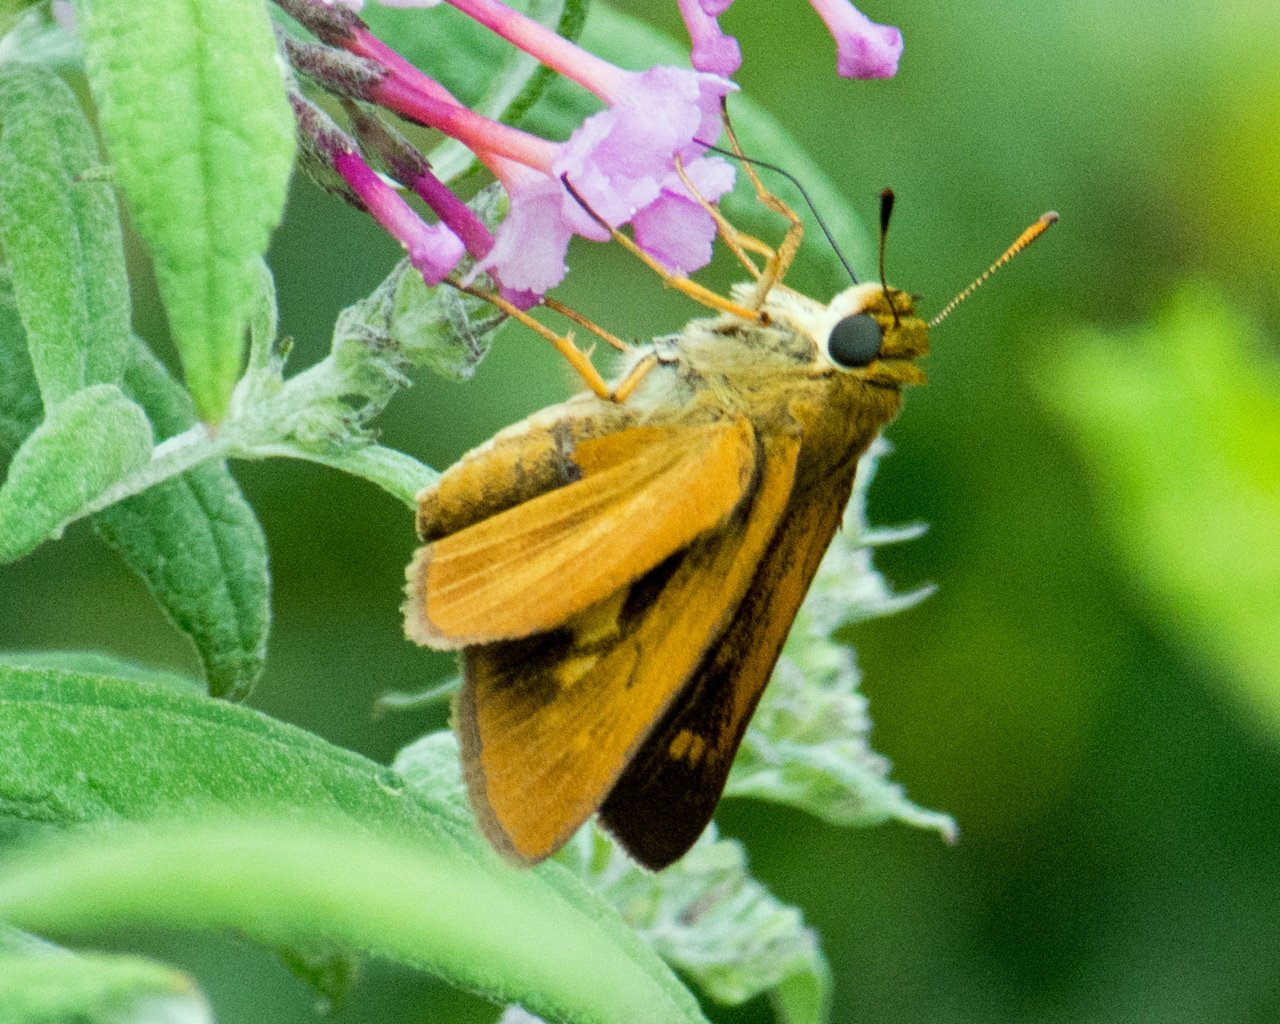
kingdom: Animalia
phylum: Arthropoda
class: Insecta
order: Lepidoptera
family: Hesperiidae
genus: Euphyes
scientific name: Euphyes dion
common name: Dion Skipper
